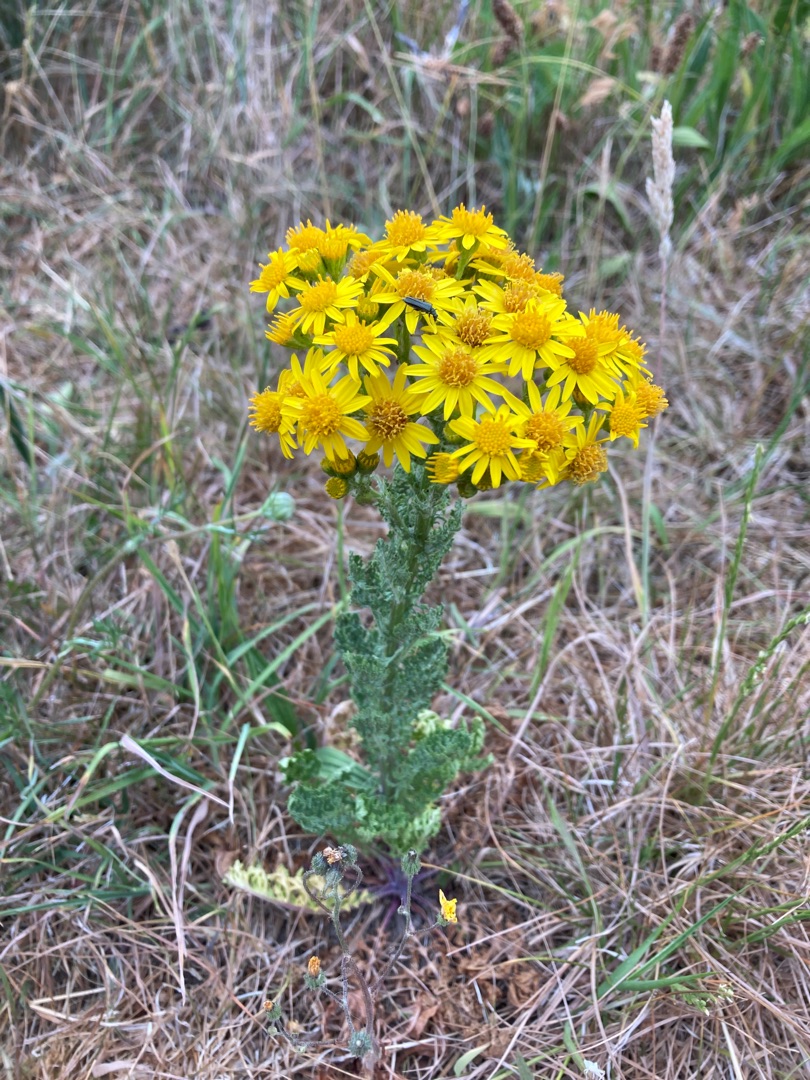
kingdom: Plantae
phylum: Tracheophyta
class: Magnoliopsida
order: Asterales
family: Asteraceae
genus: Jacobaea
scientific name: Jacobaea vulgaris
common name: Eng-brandbæger
